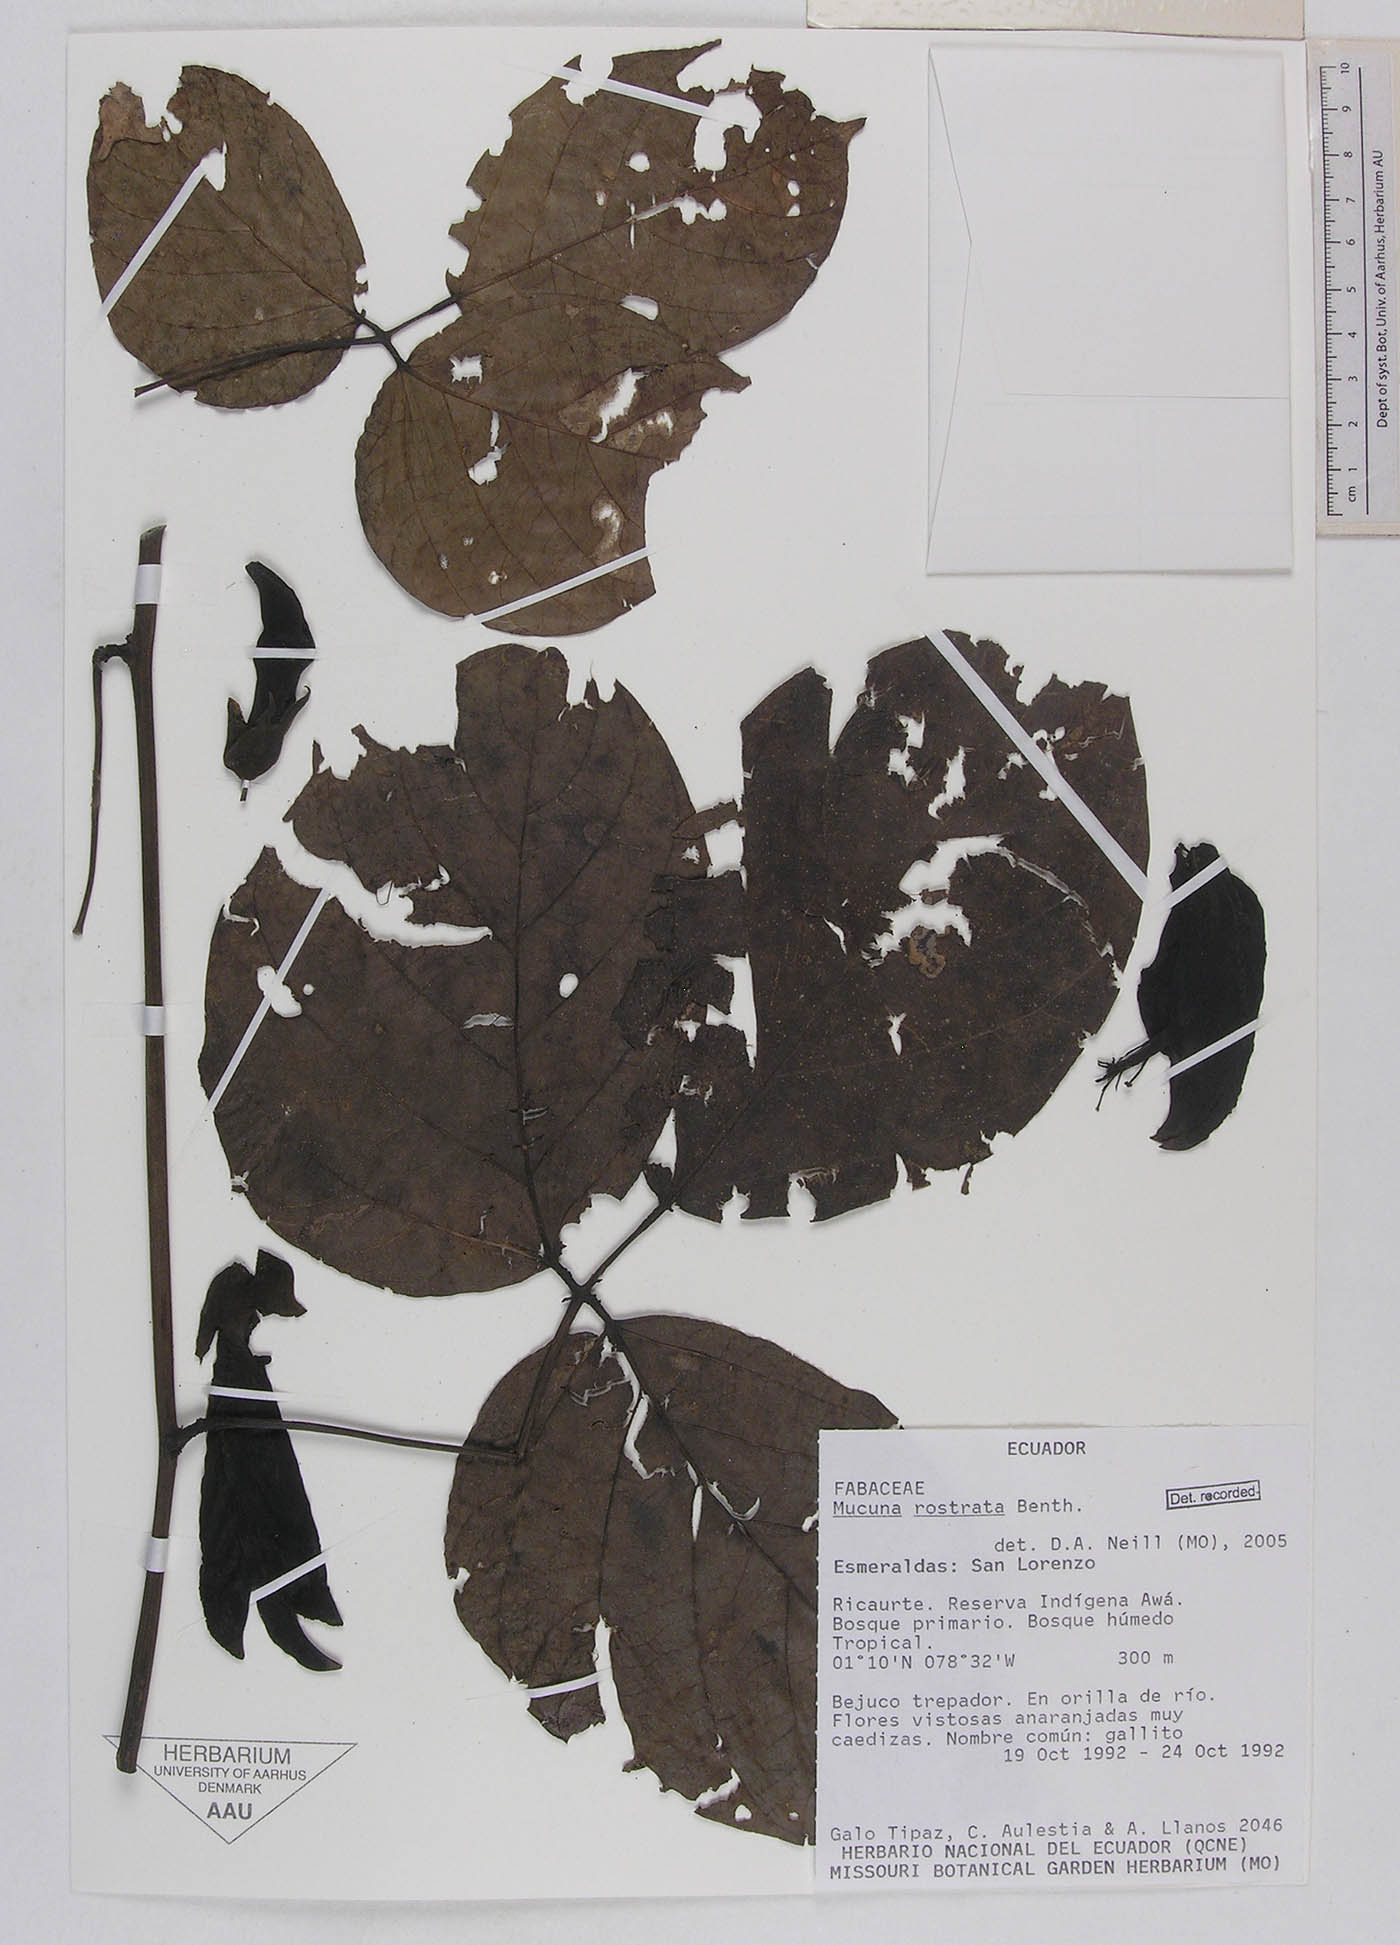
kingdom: Plantae
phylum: Tracheophyta
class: Magnoliopsida
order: Fabales
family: Fabaceae
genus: Mucuna
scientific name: Mucuna rostrata
